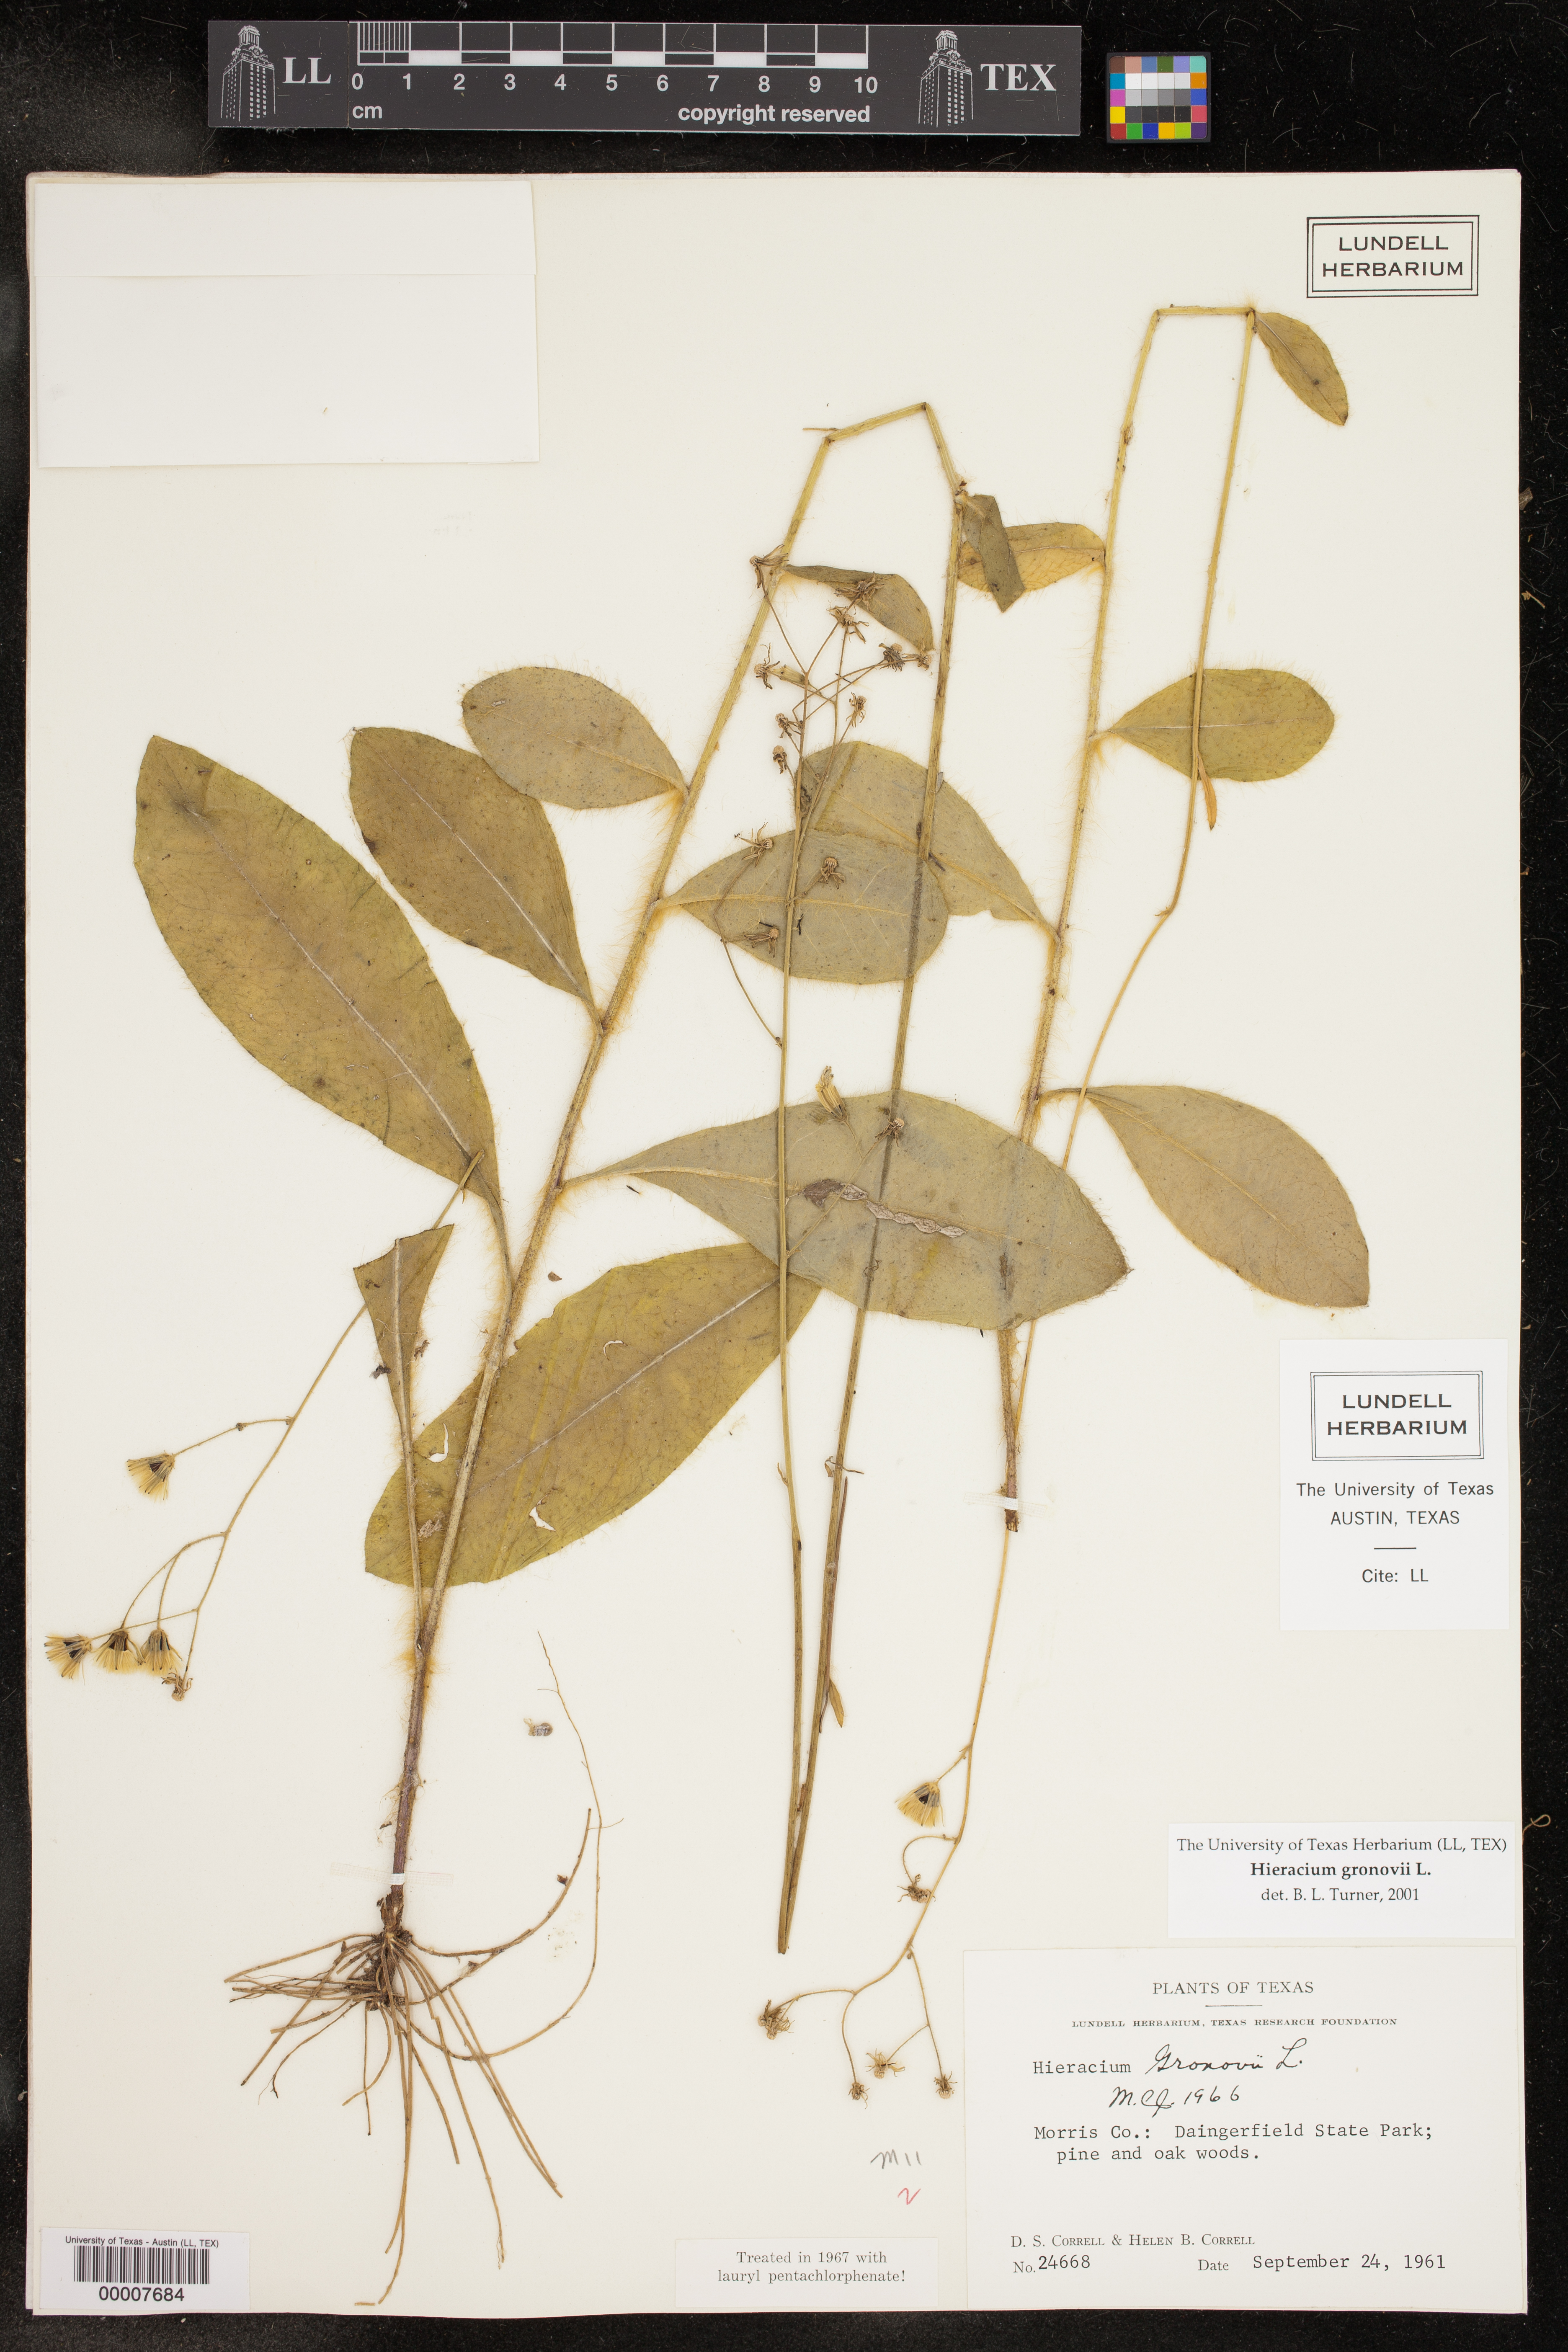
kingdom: Plantae
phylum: Tracheophyta
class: Magnoliopsida
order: Asterales
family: Asteraceae
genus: Hieracium
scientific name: Hieracium gronovii
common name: Beaked hawkweed
